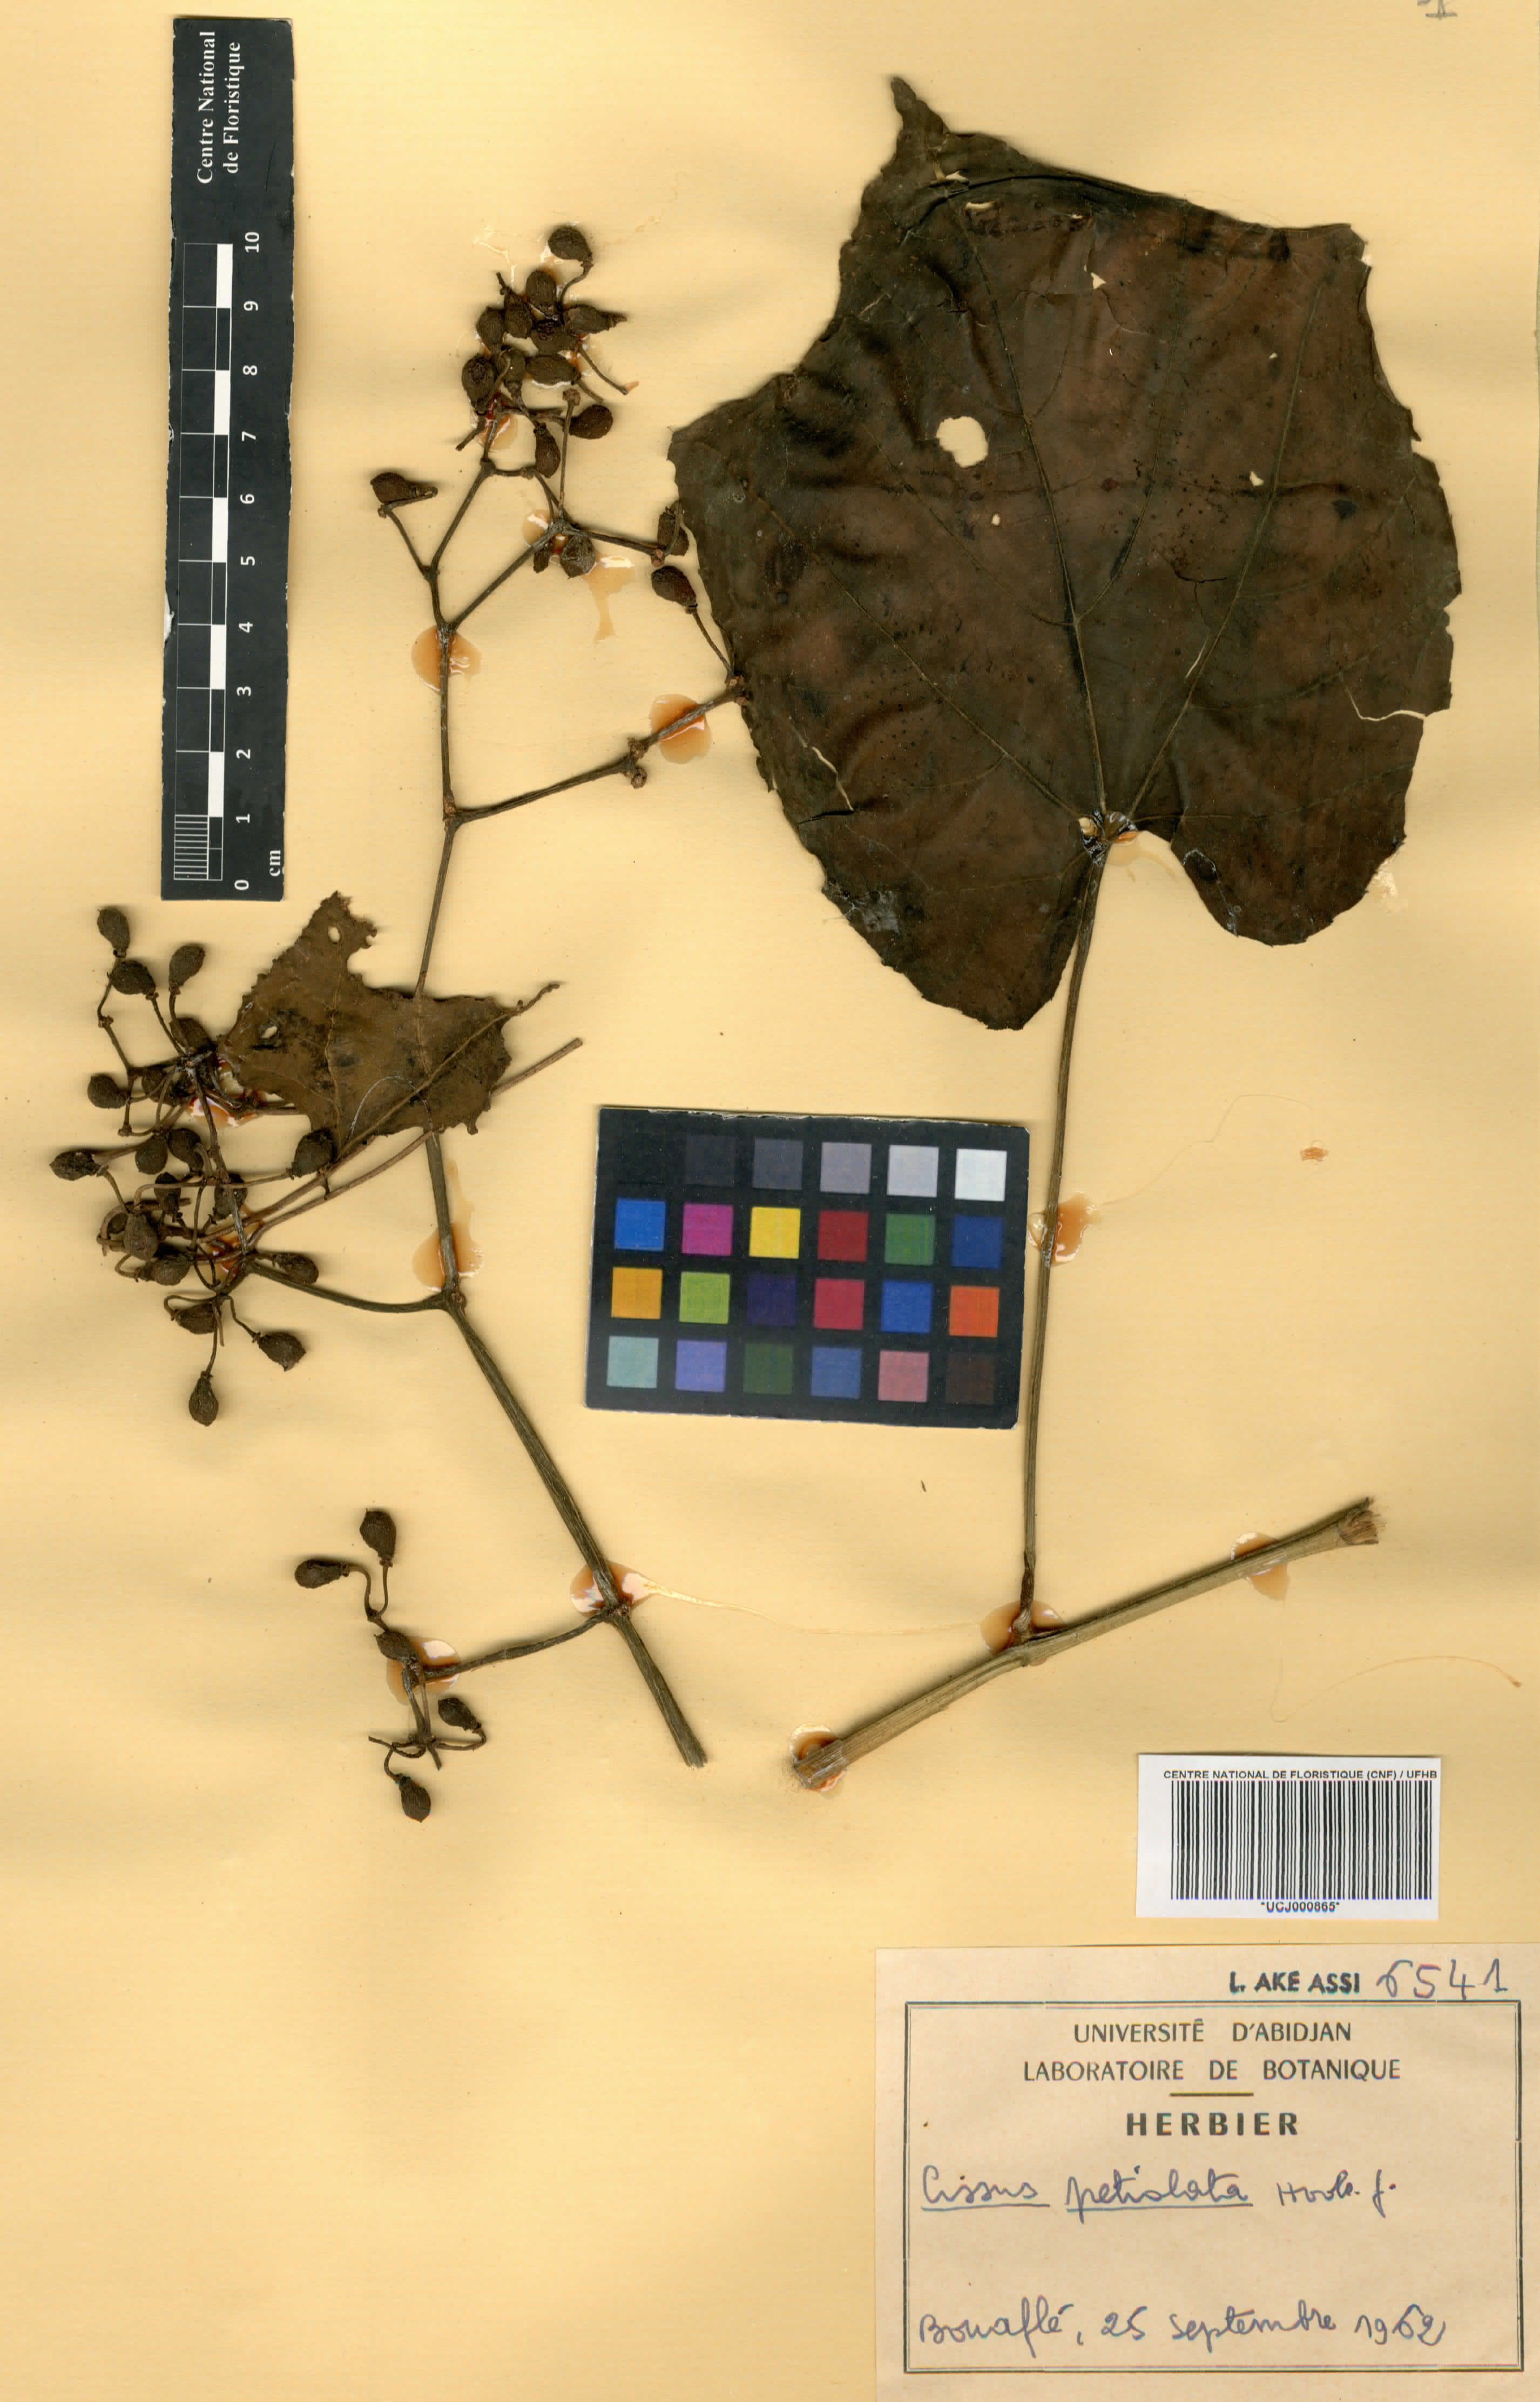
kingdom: Plantae
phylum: Tracheophyta
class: Magnoliopsida
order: Vitales
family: Vitaceae
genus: Cissus
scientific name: Cissus petiolata
